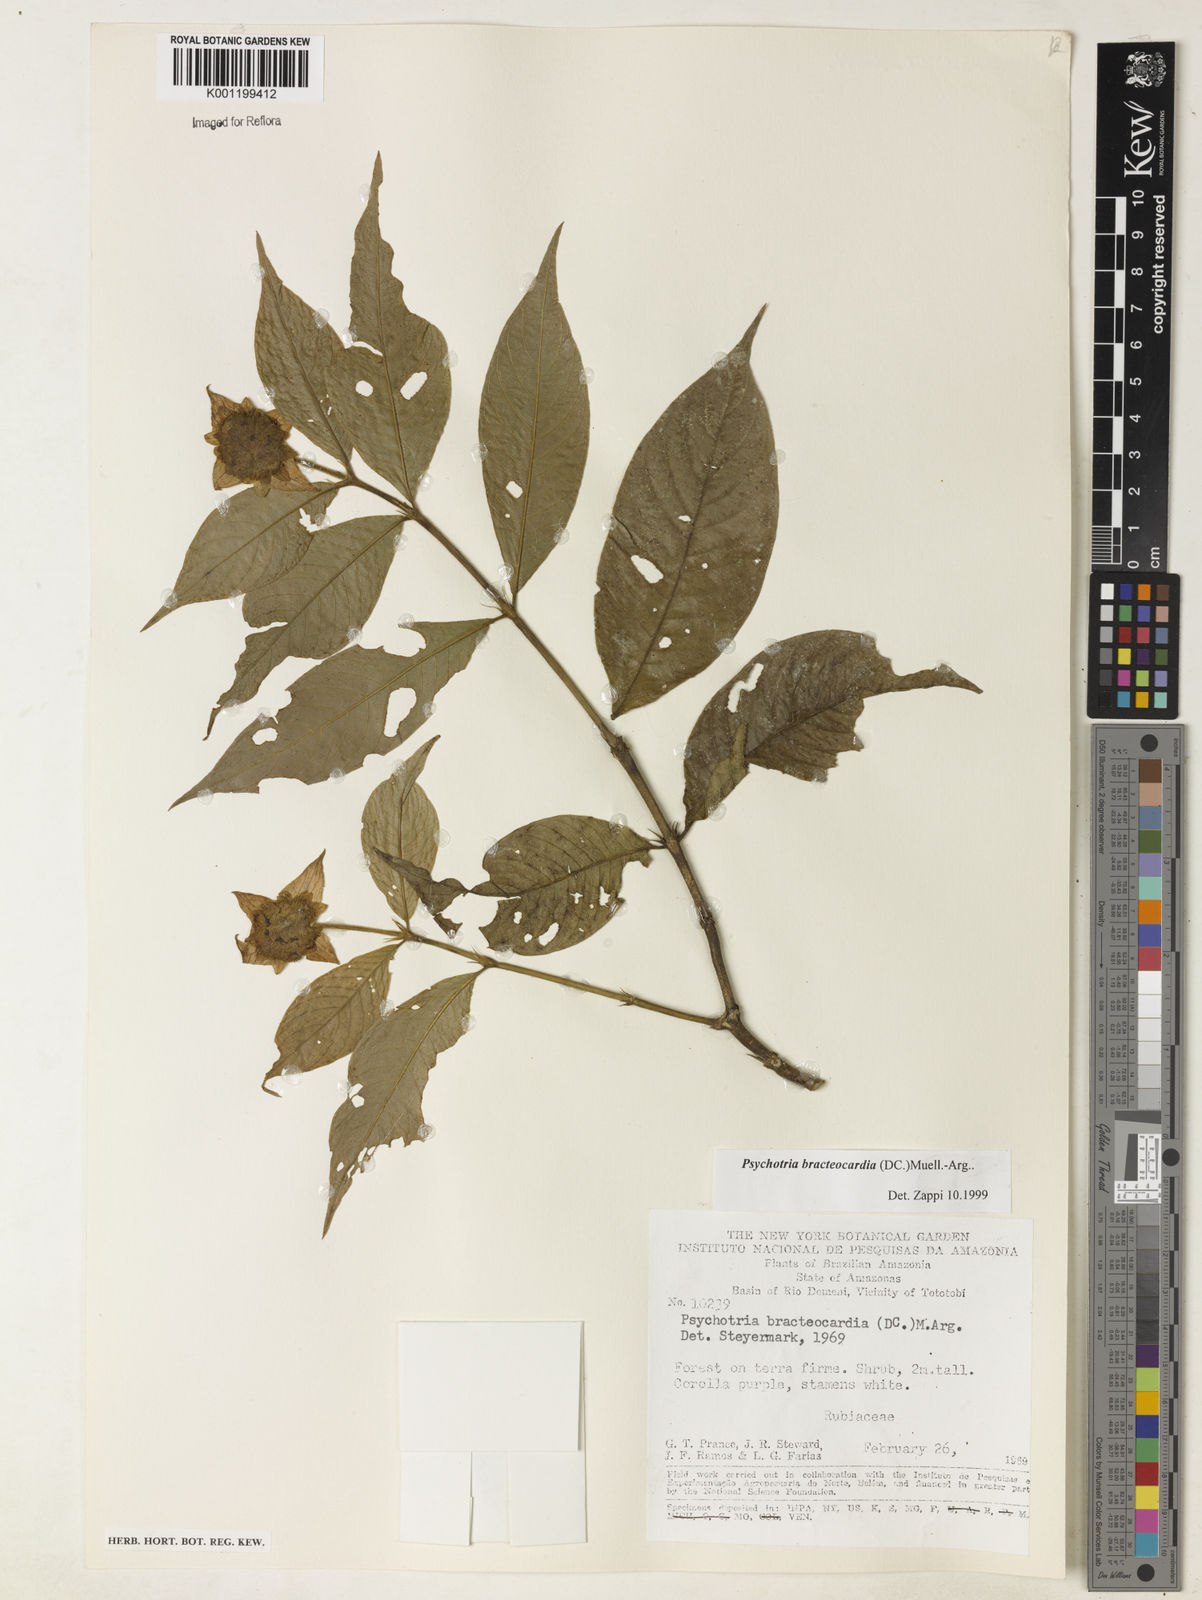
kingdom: Plantae
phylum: Tracheophyta
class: Magnoliopsida
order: Gentianales
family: Rubiaceae
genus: Psychotria
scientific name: Psychotria
